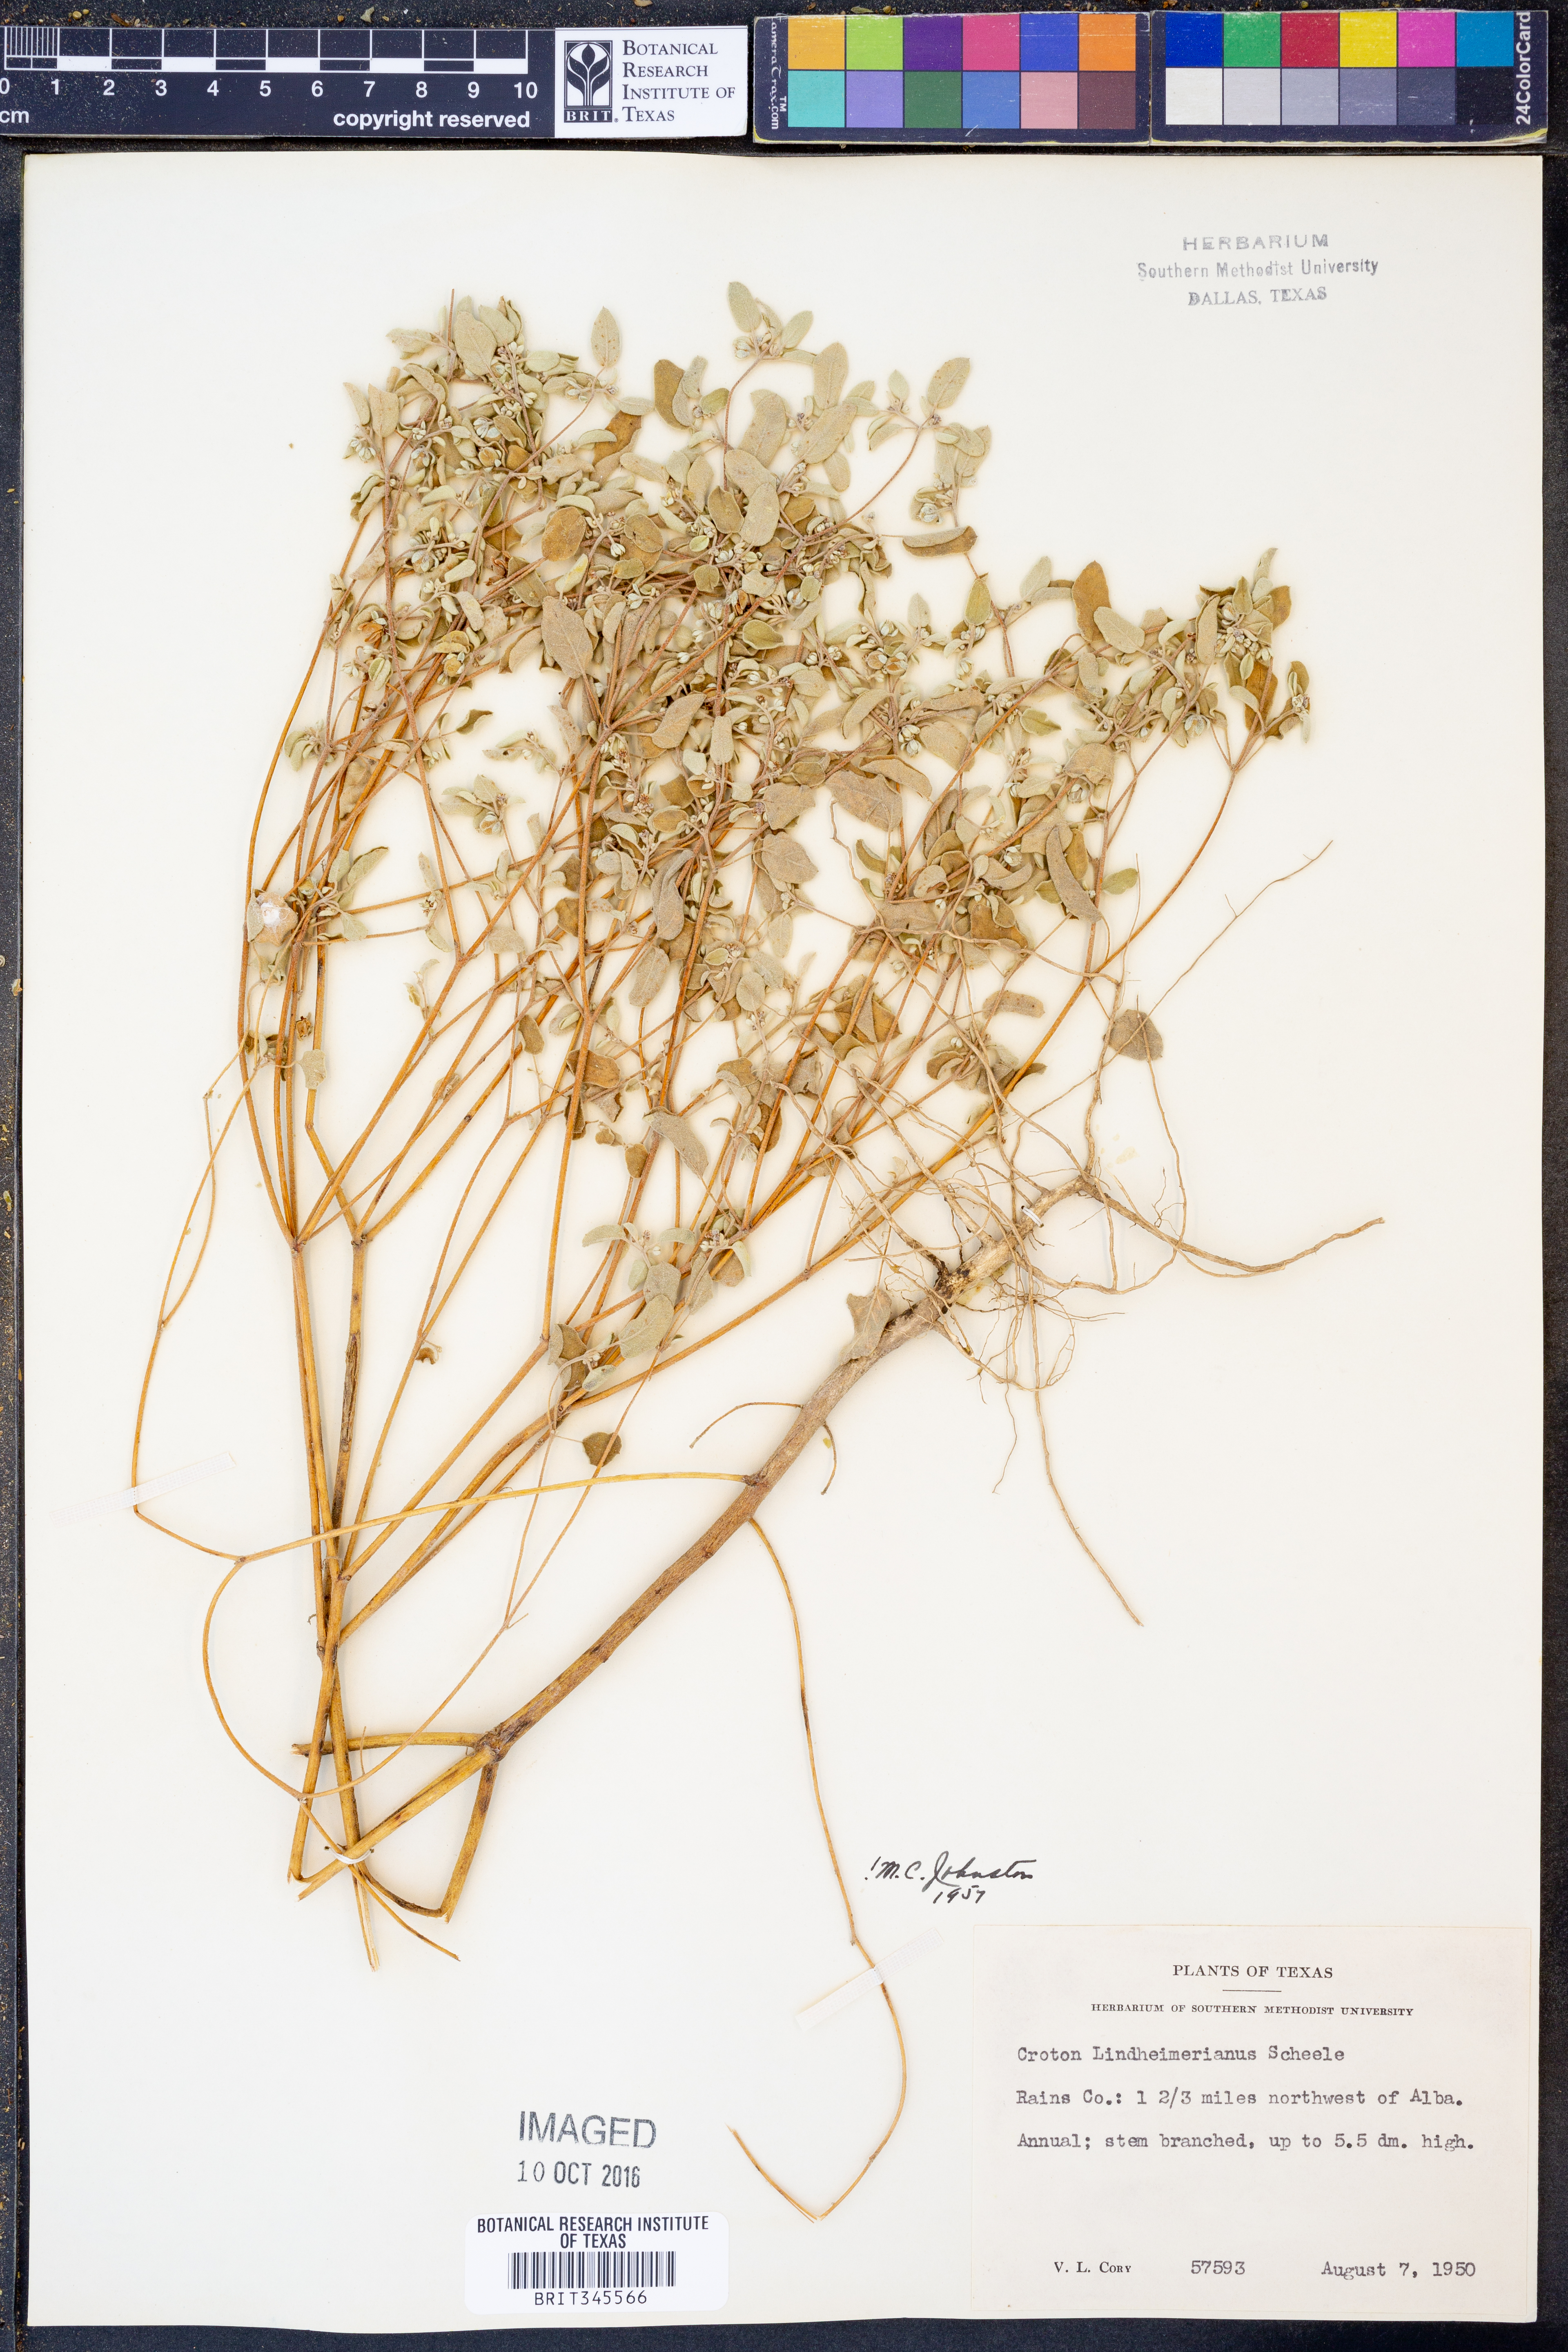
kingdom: Plantae
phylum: Tracheophyta
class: Magnoliopsida
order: Malpighiales
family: Euphorbiaceae
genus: Croton
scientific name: Croton lindheimerianus
